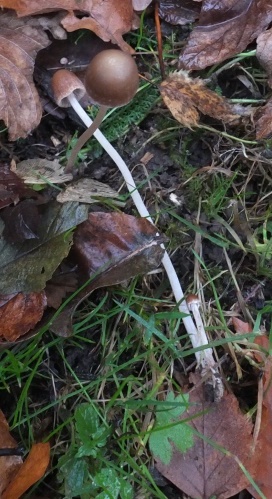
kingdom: Fungi
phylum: Basidiomycota
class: Agaricomycetes
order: Agaricales
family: Psathyrellaceae
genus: Psathyrella
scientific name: Psathyrella microrhiza
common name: rod-mørkhat
